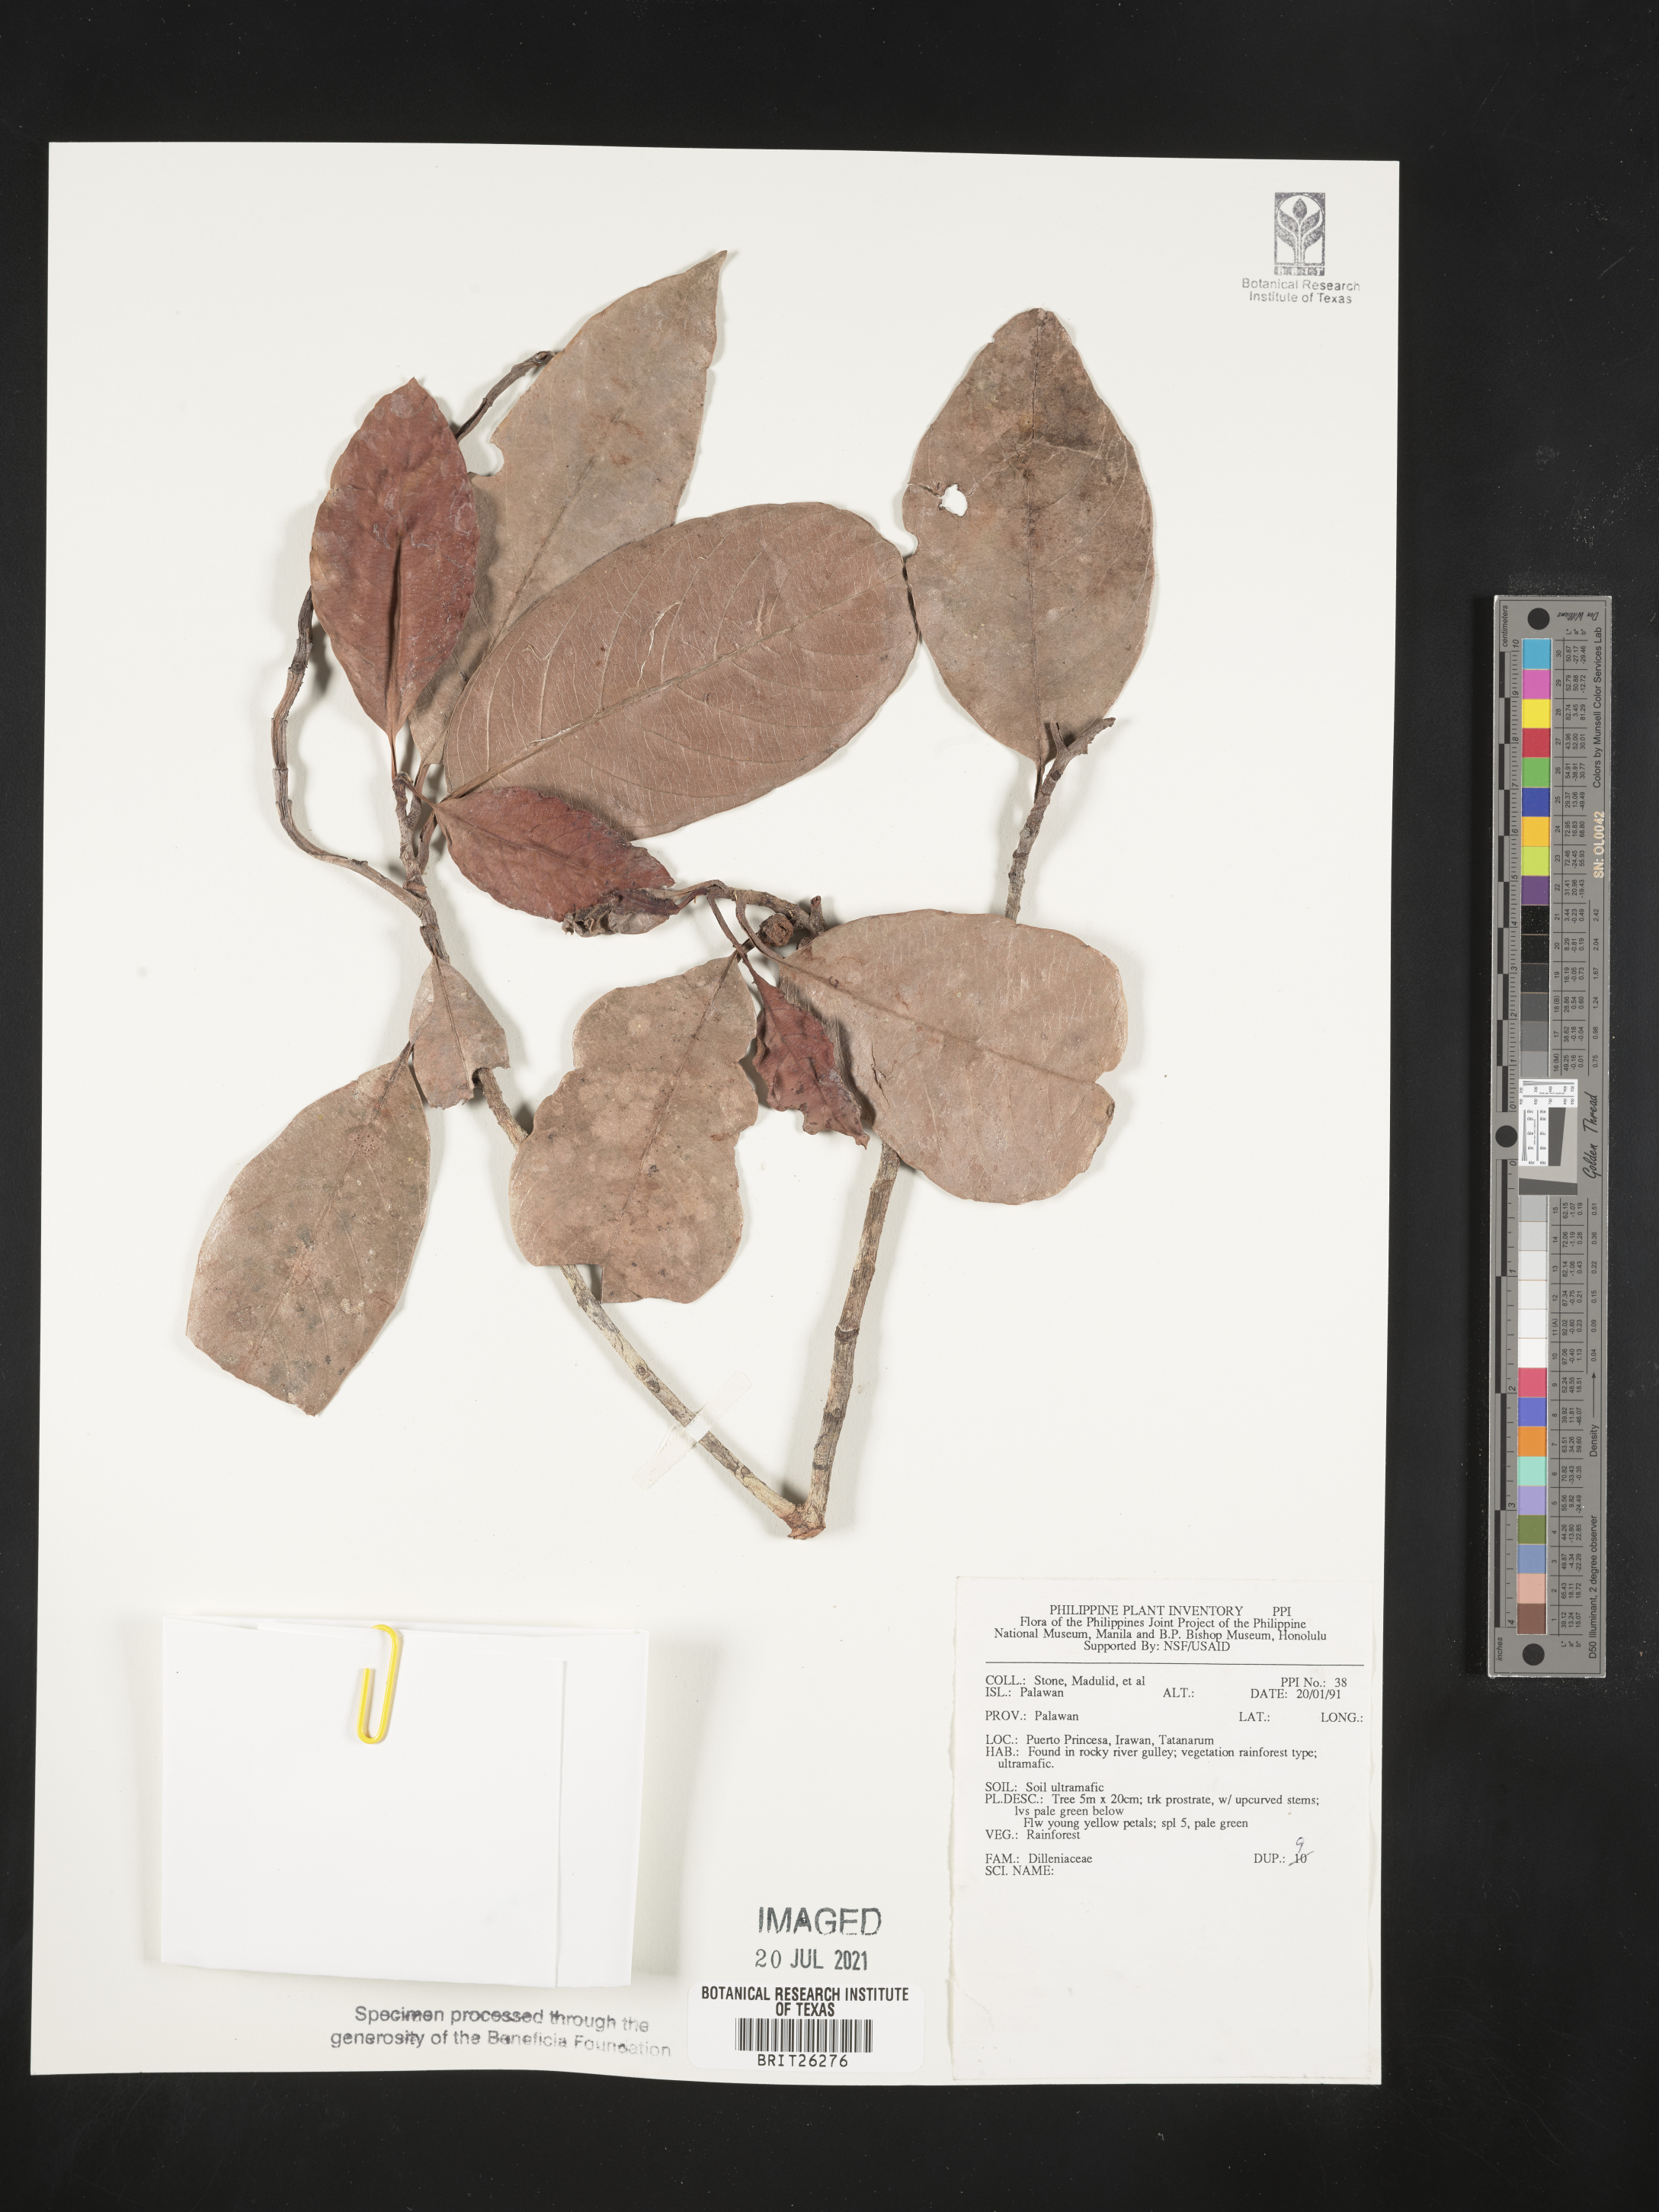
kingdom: Plantae
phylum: Tracheophyta
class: Magnoliopsida
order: Dilleniales
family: Dilleniaceae
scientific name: Dilleniaceae
